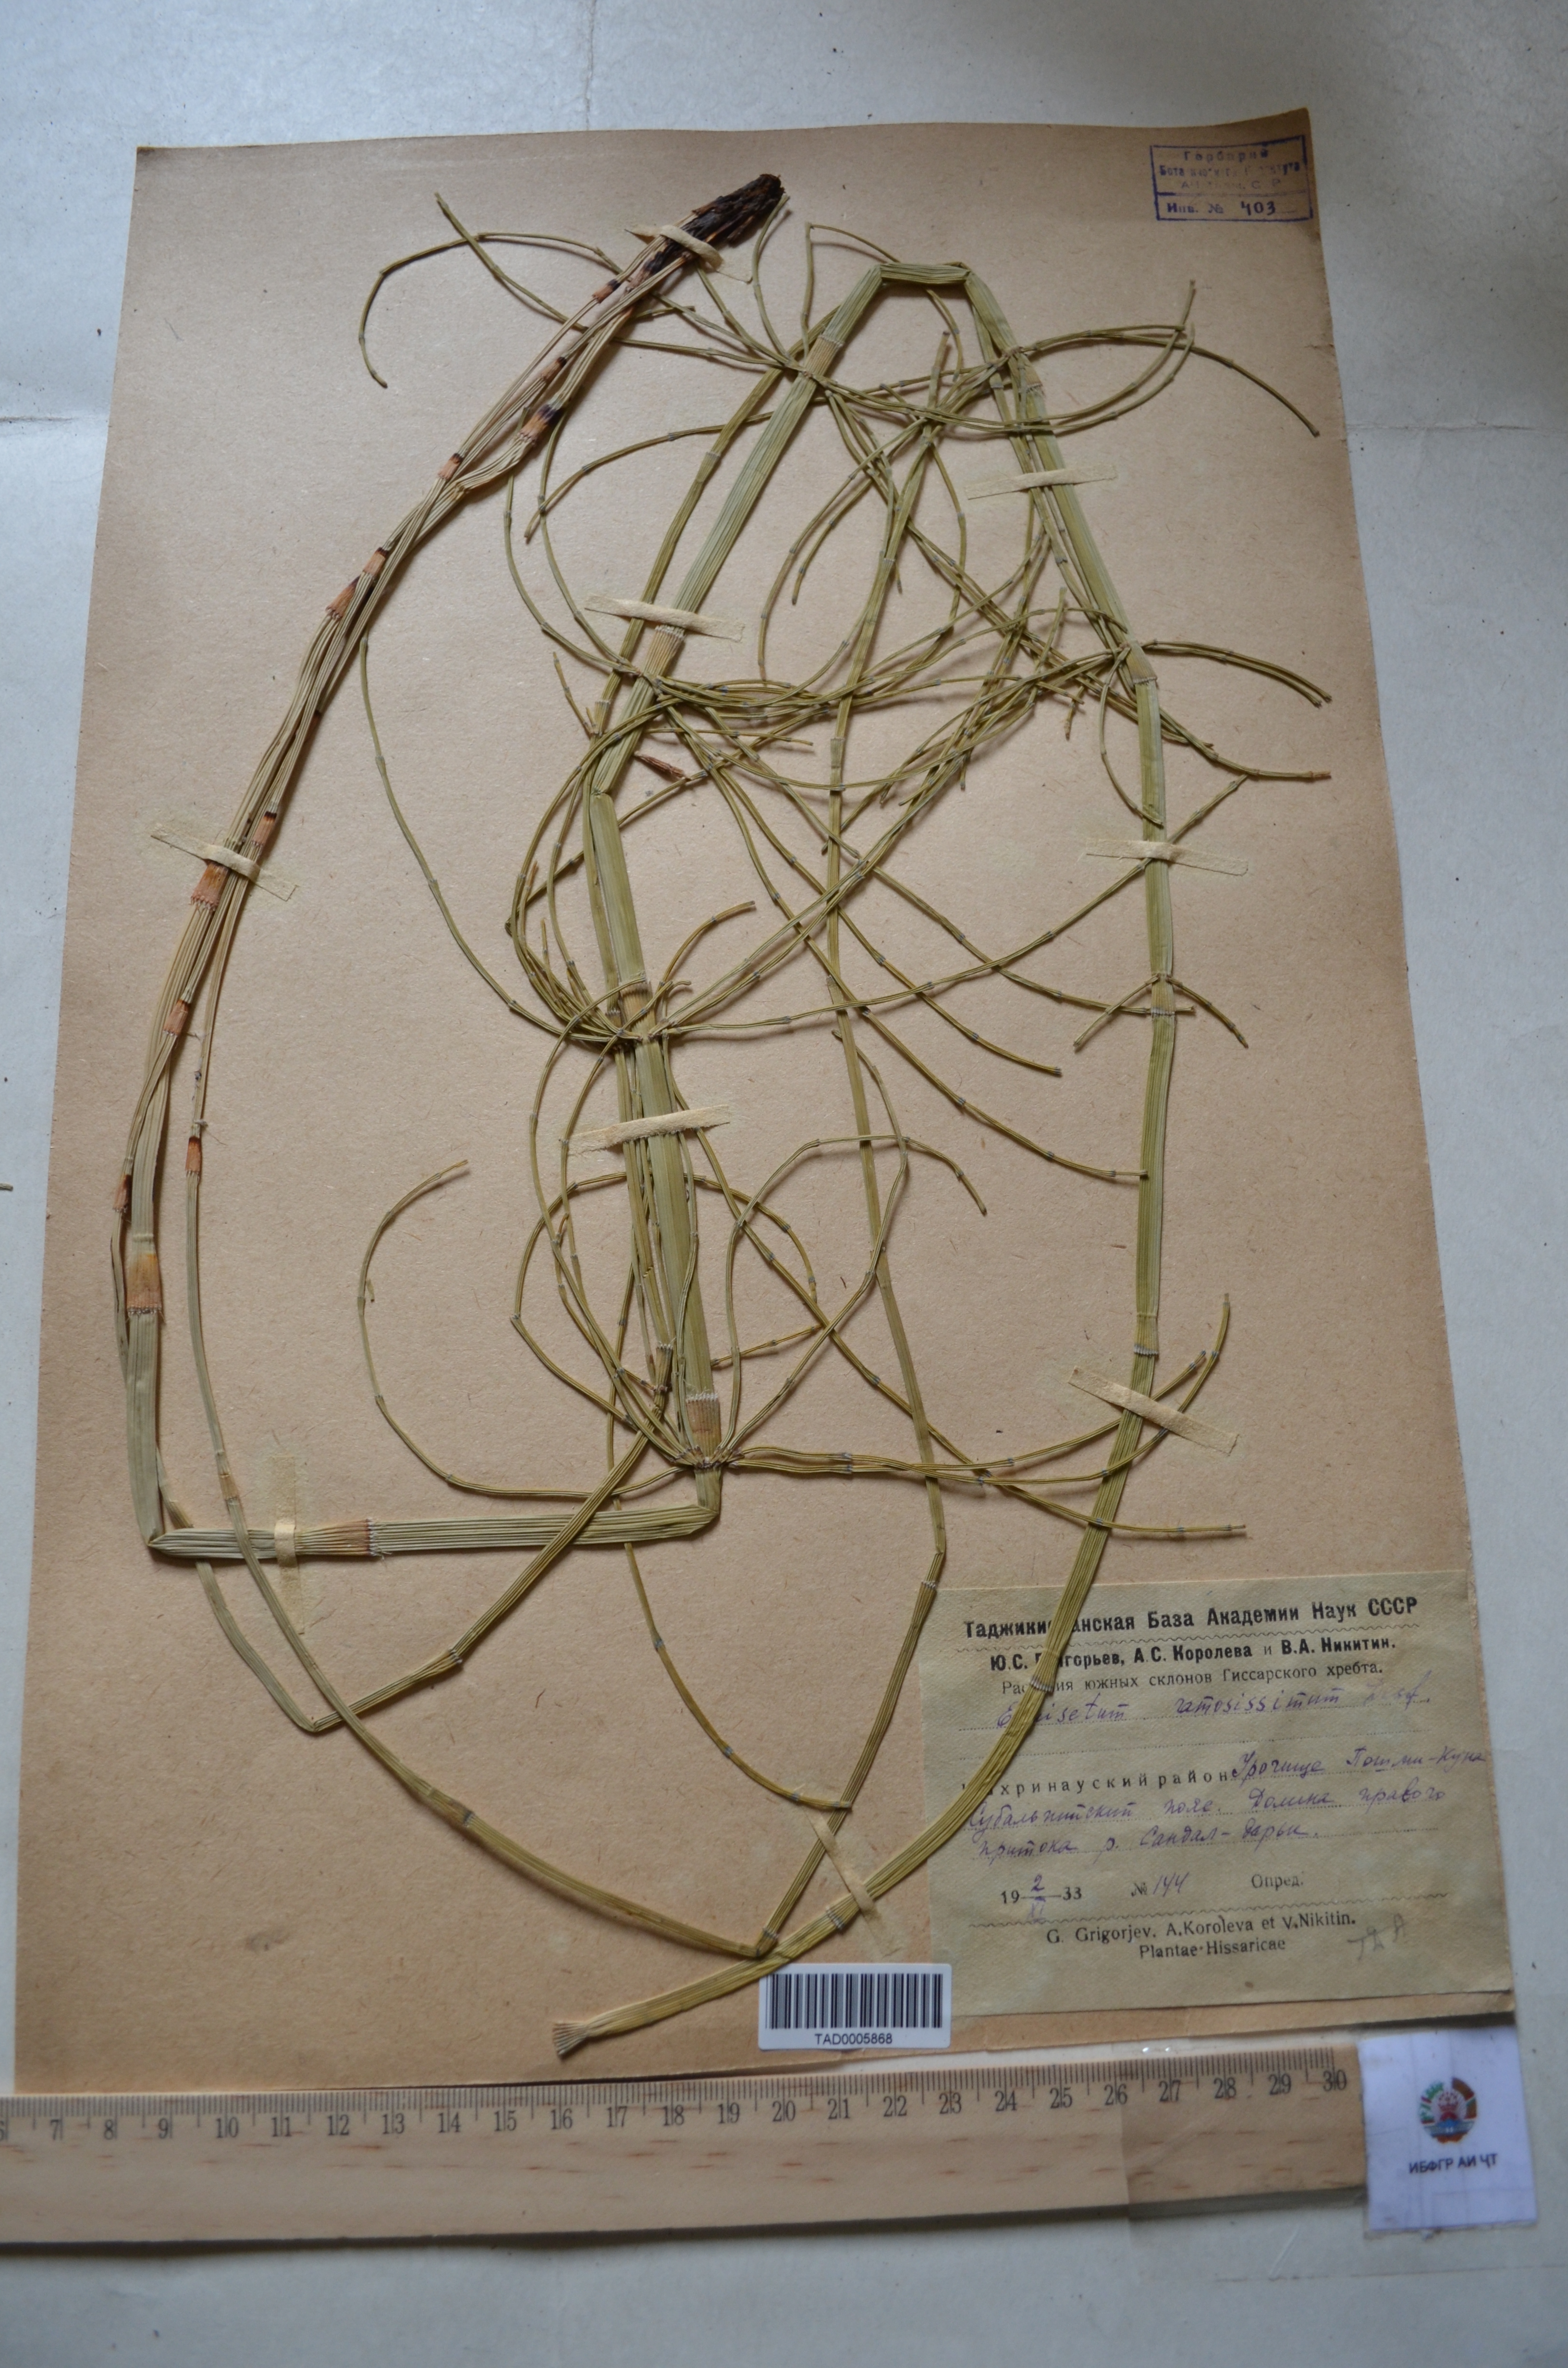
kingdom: Plantae
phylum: Tracheophyta
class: Polypodiopsida
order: Equisetales
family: Equisetaceae
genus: Equisetum
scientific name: Equisetum ramosissimum
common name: Branched horsetail
